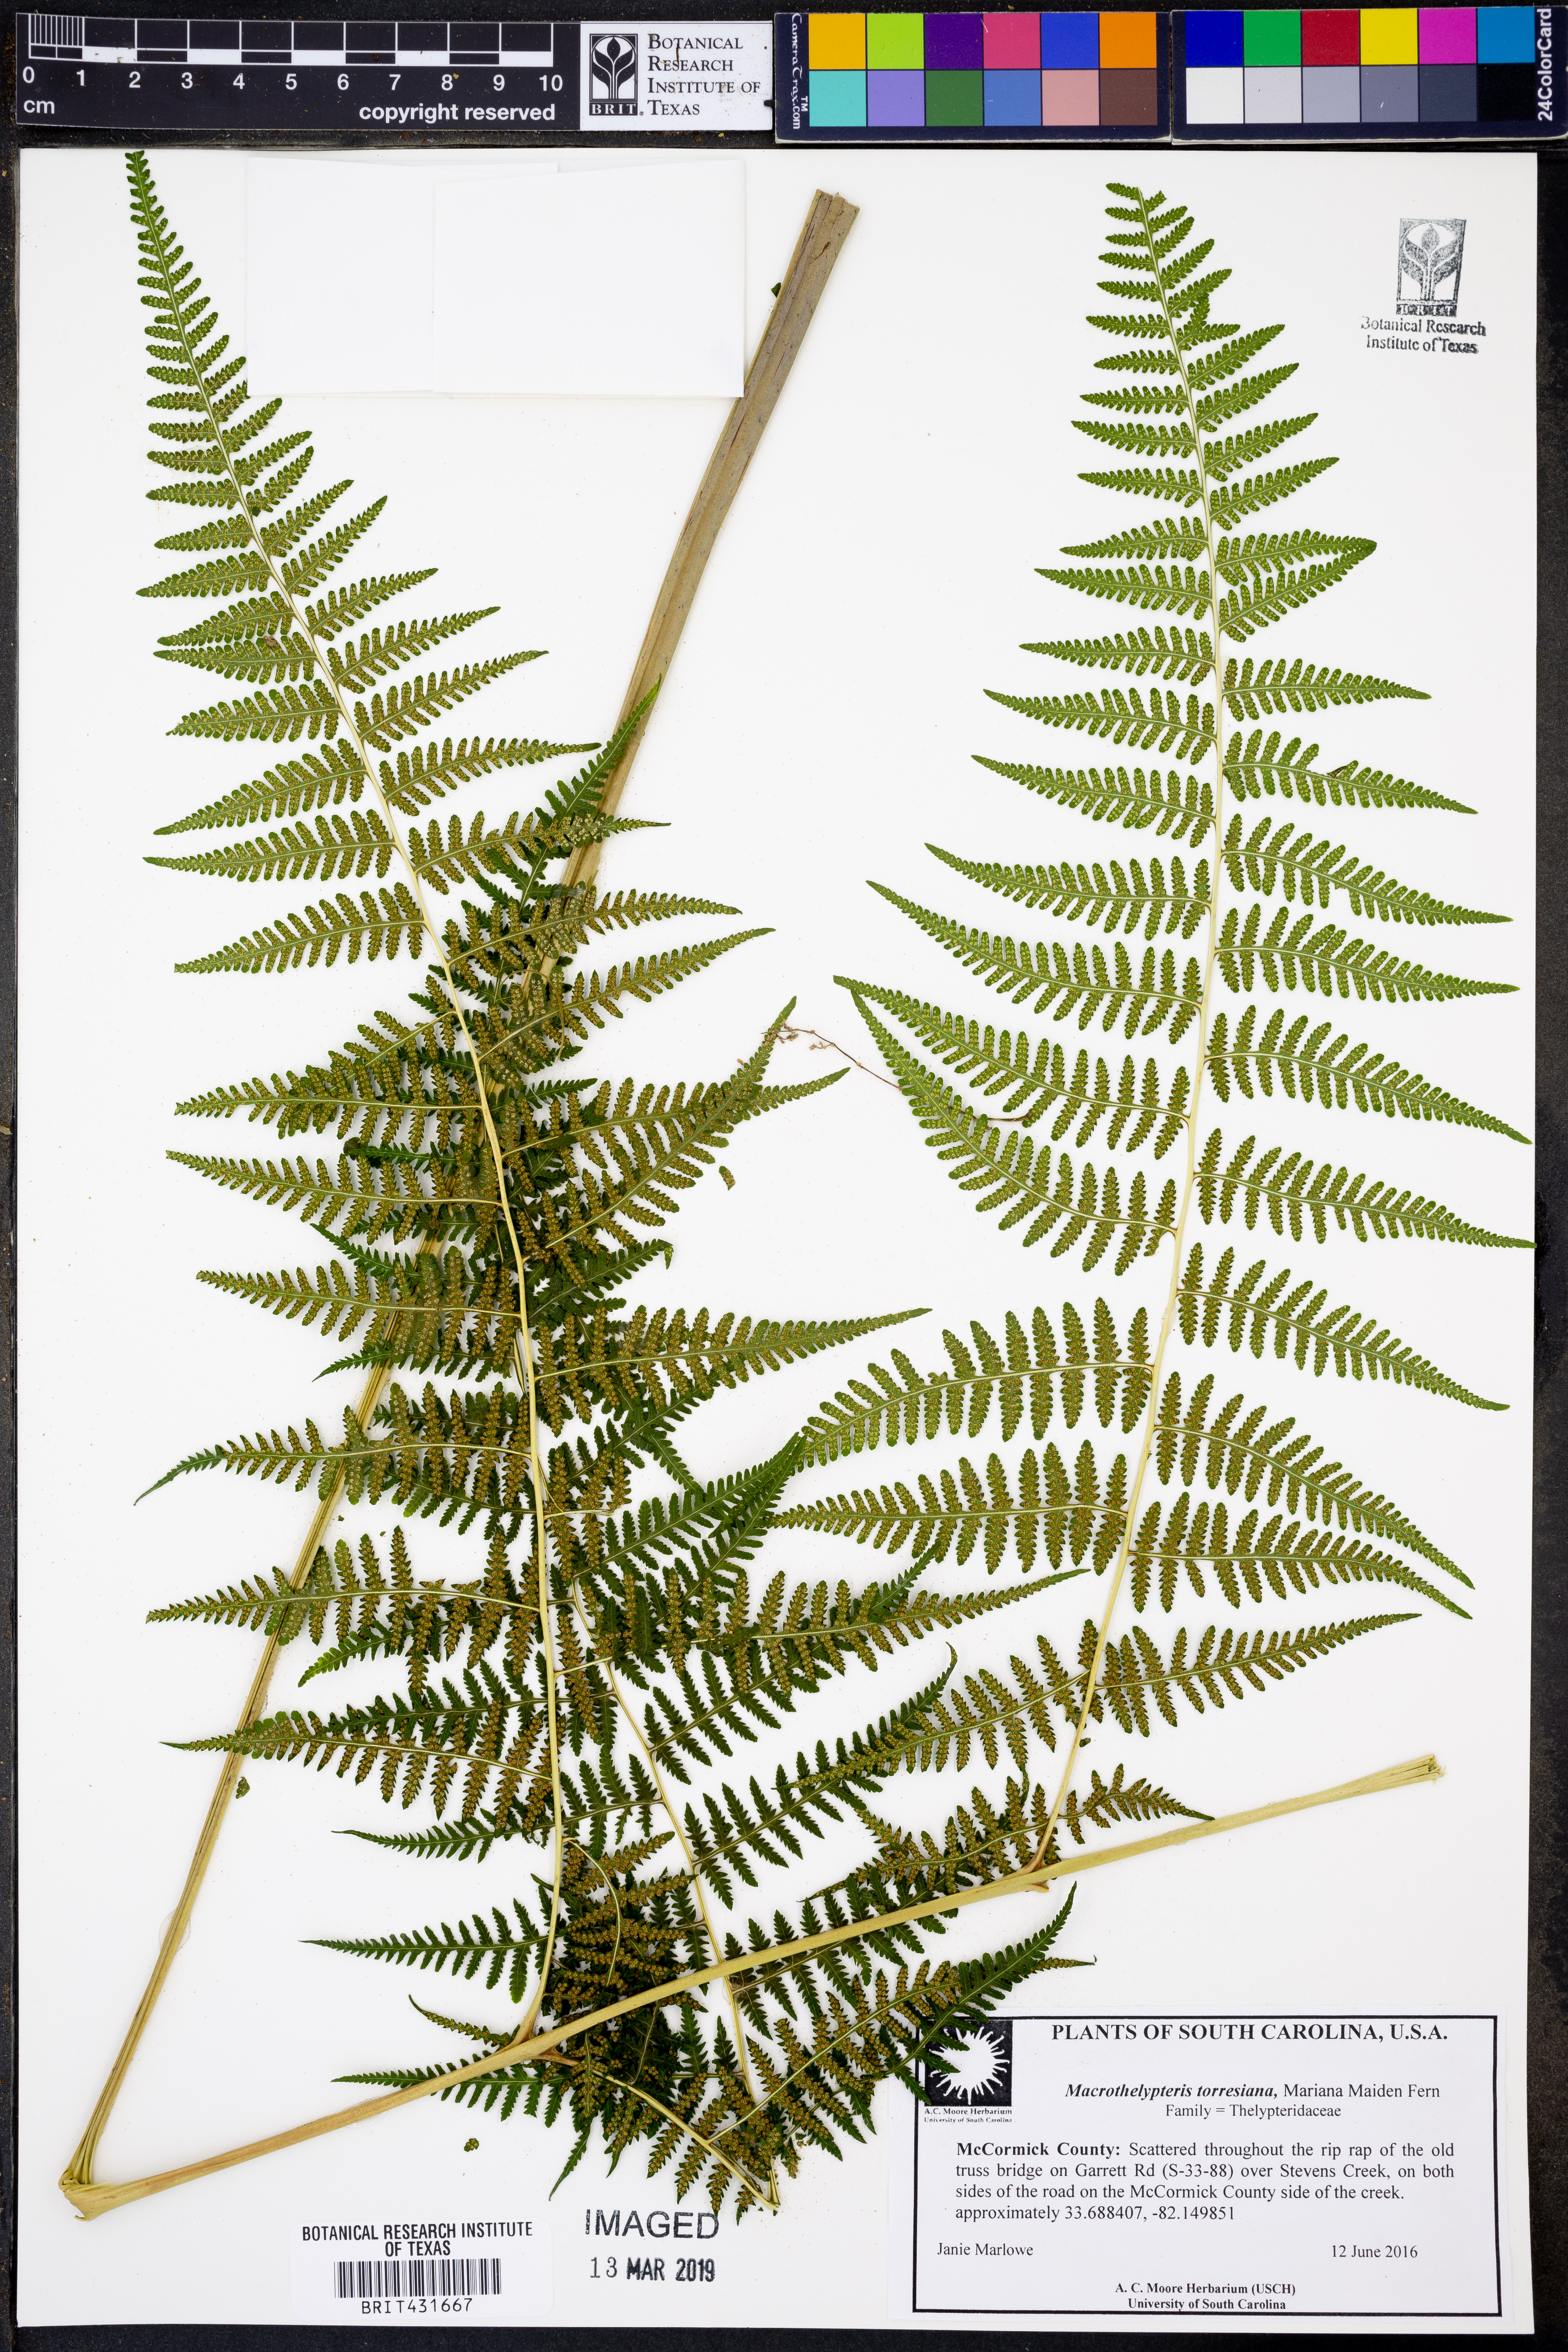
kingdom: Plantae
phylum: Tracheophyta
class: Polypodiopsida
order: Polypodiales
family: Thelypteridaceae
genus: Macrothelypteris
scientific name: Macrothelypteris torresiana
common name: Swordfern
